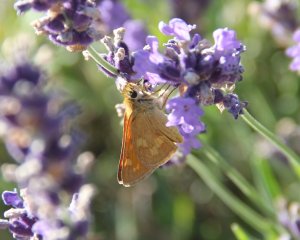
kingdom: Animalia
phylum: Arthropoda
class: Insecta
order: Lepidoptera
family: Hesperiidae
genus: Ochlodes
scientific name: Ochlodes sylvanoides
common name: Woodland Skipper
